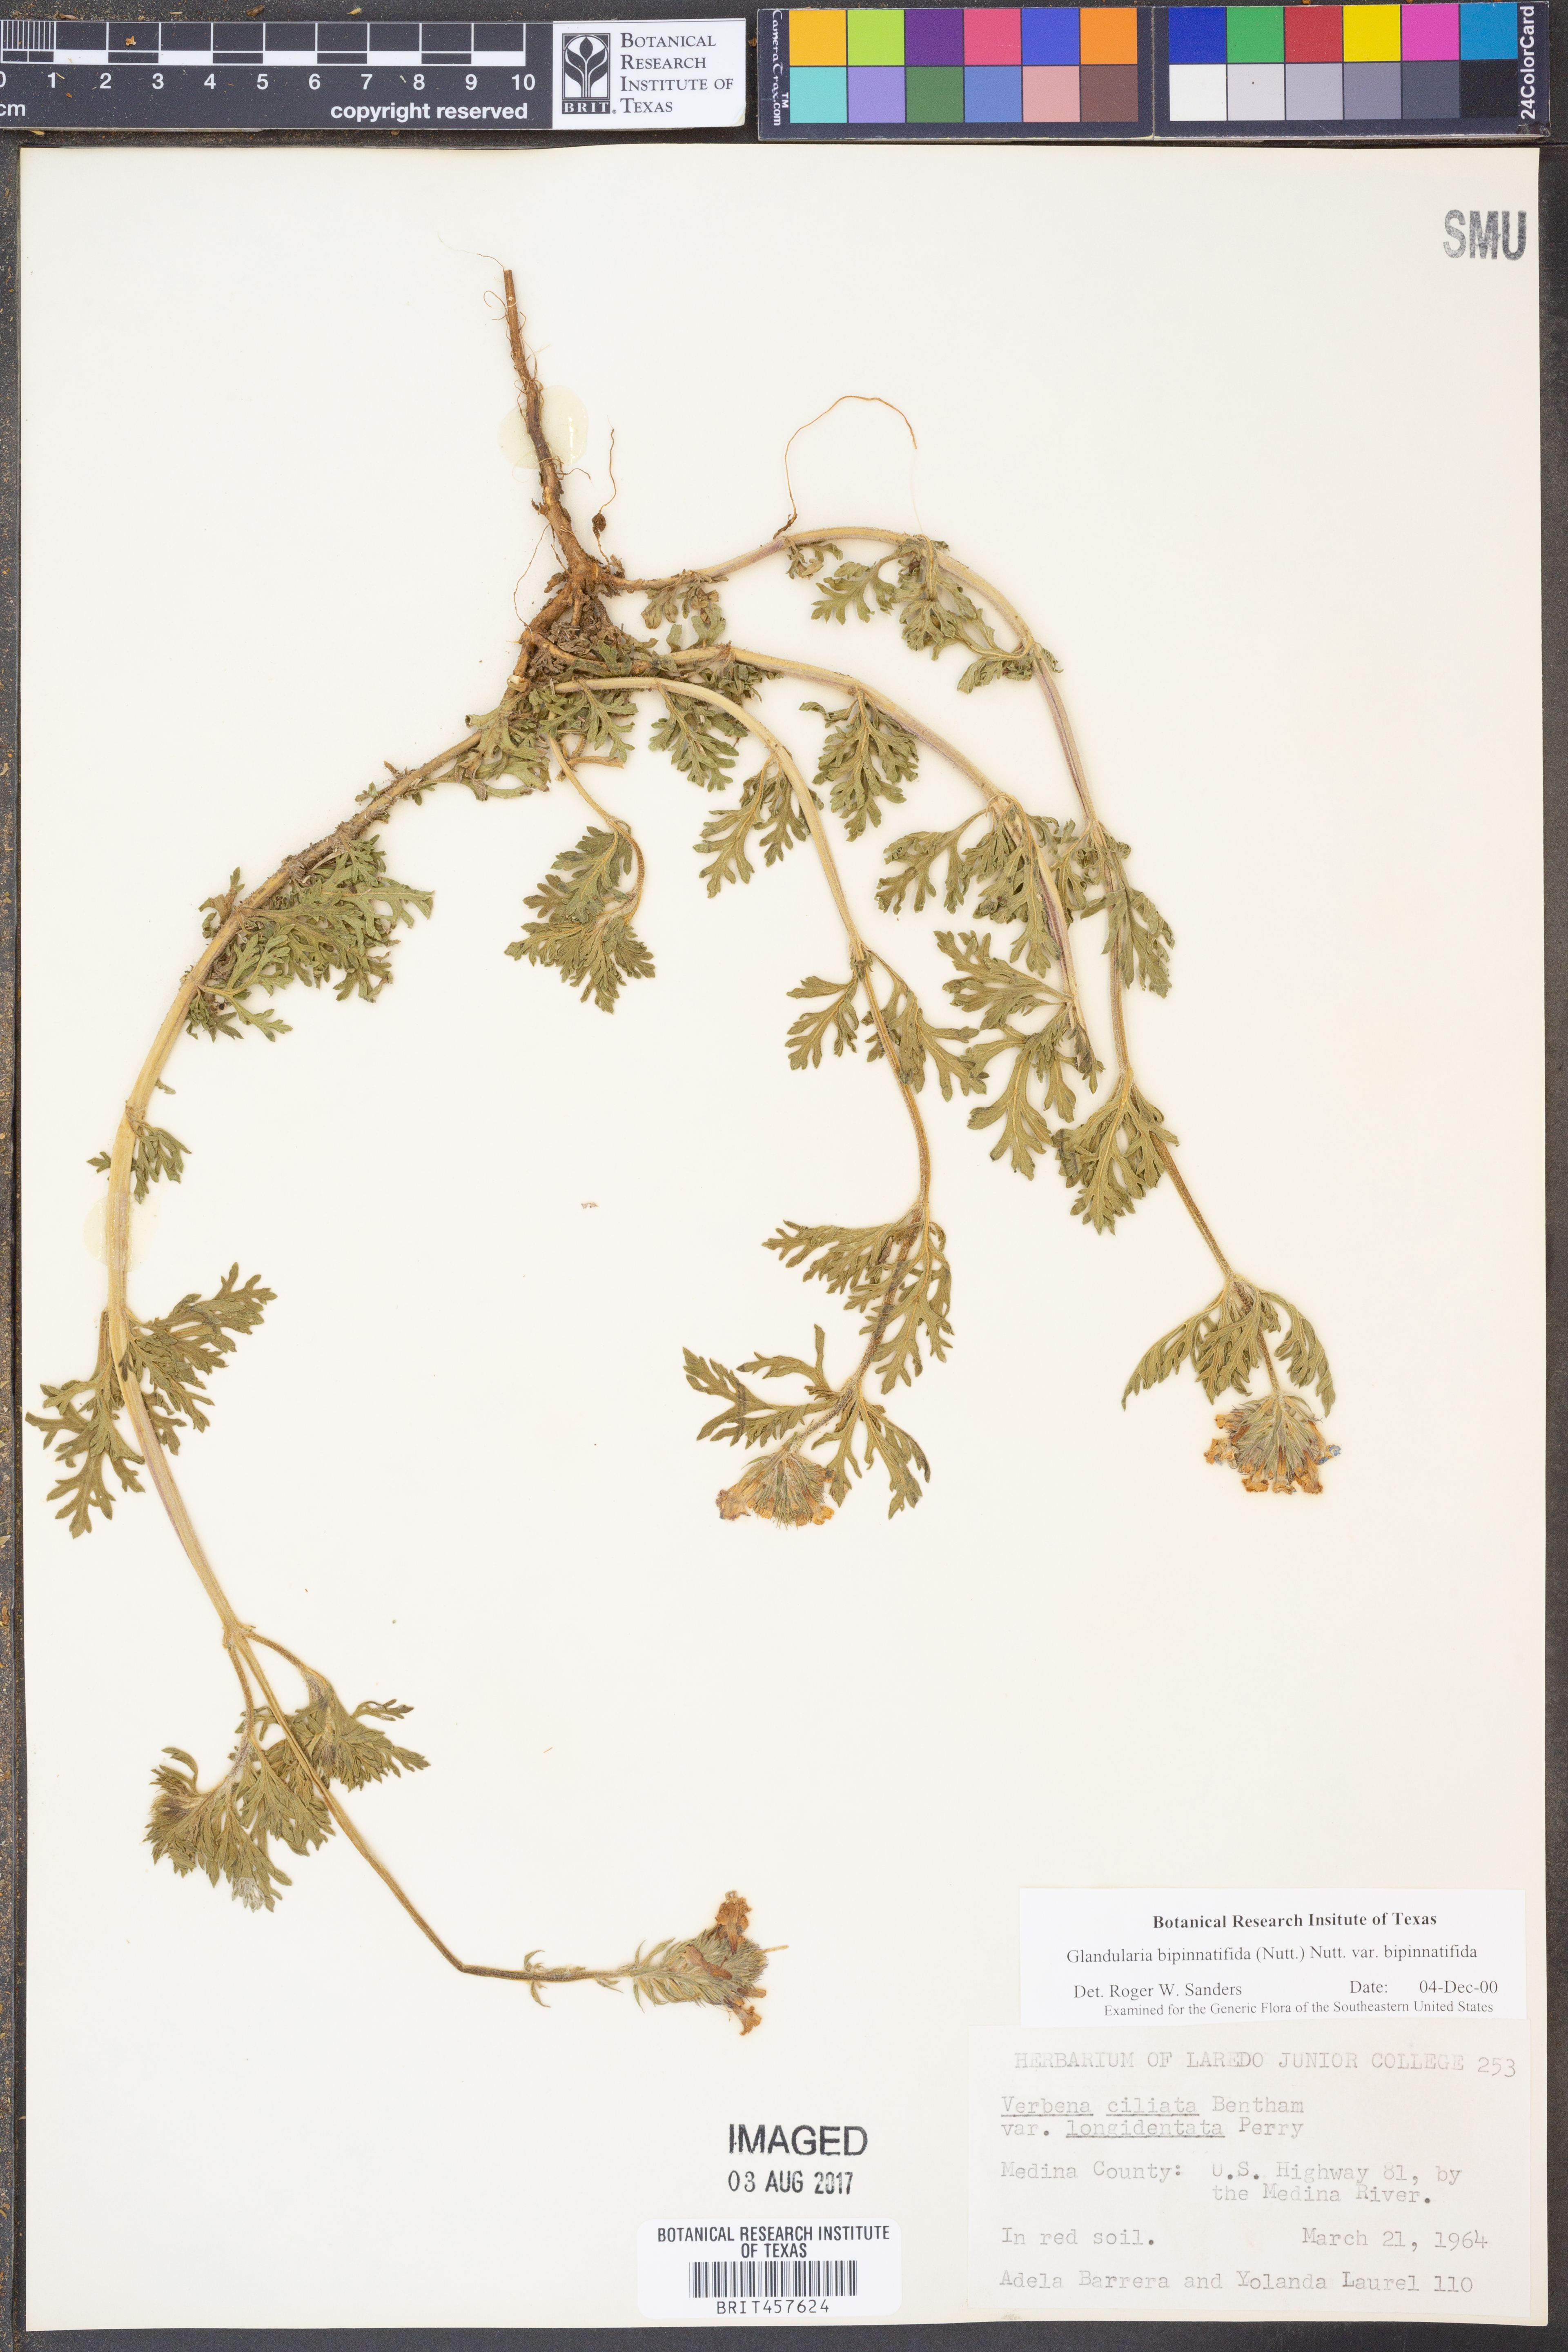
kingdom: Plantae
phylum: Tracheophyta
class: Magnoliopsida
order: Lamiales
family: Verbenaceae
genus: Verbena
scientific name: Verbena bipinnatifida
